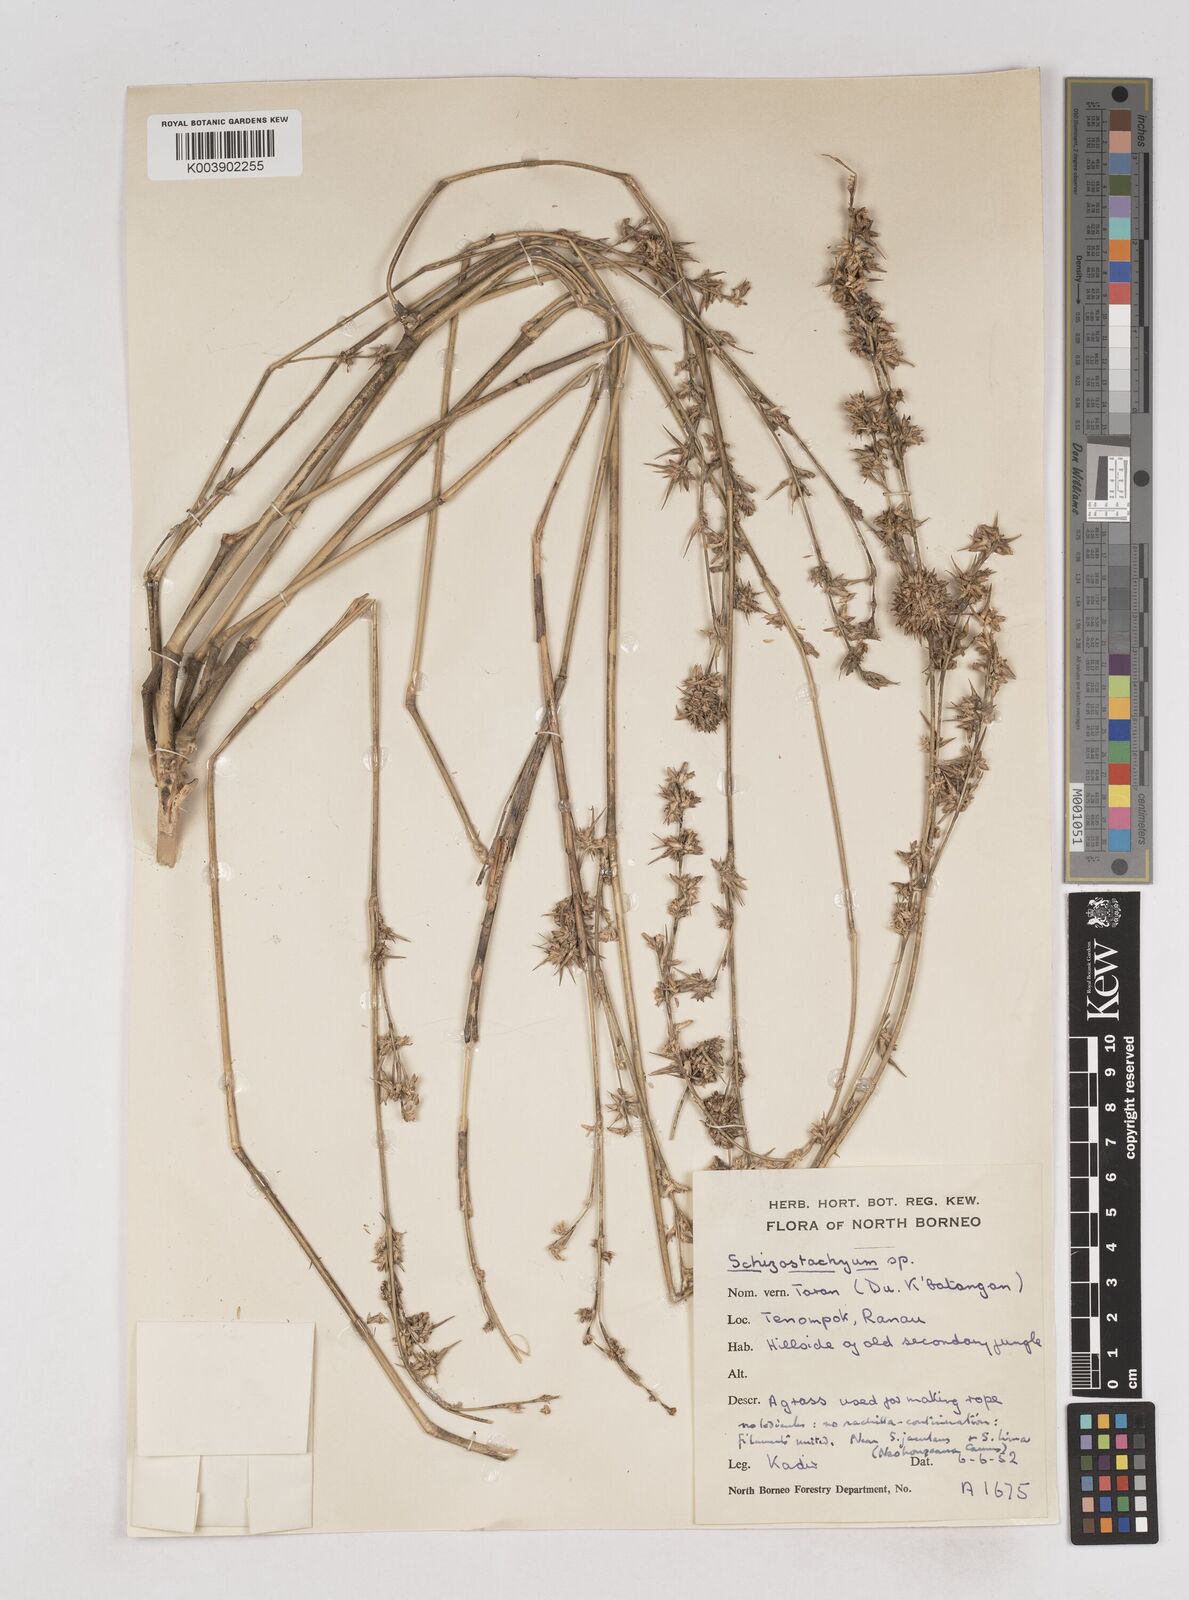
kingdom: Plantae
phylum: Tracheophyta
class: Liliopsida
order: Poales
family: Poaceae
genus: Schizostachyum
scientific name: Schizostachyum lima
